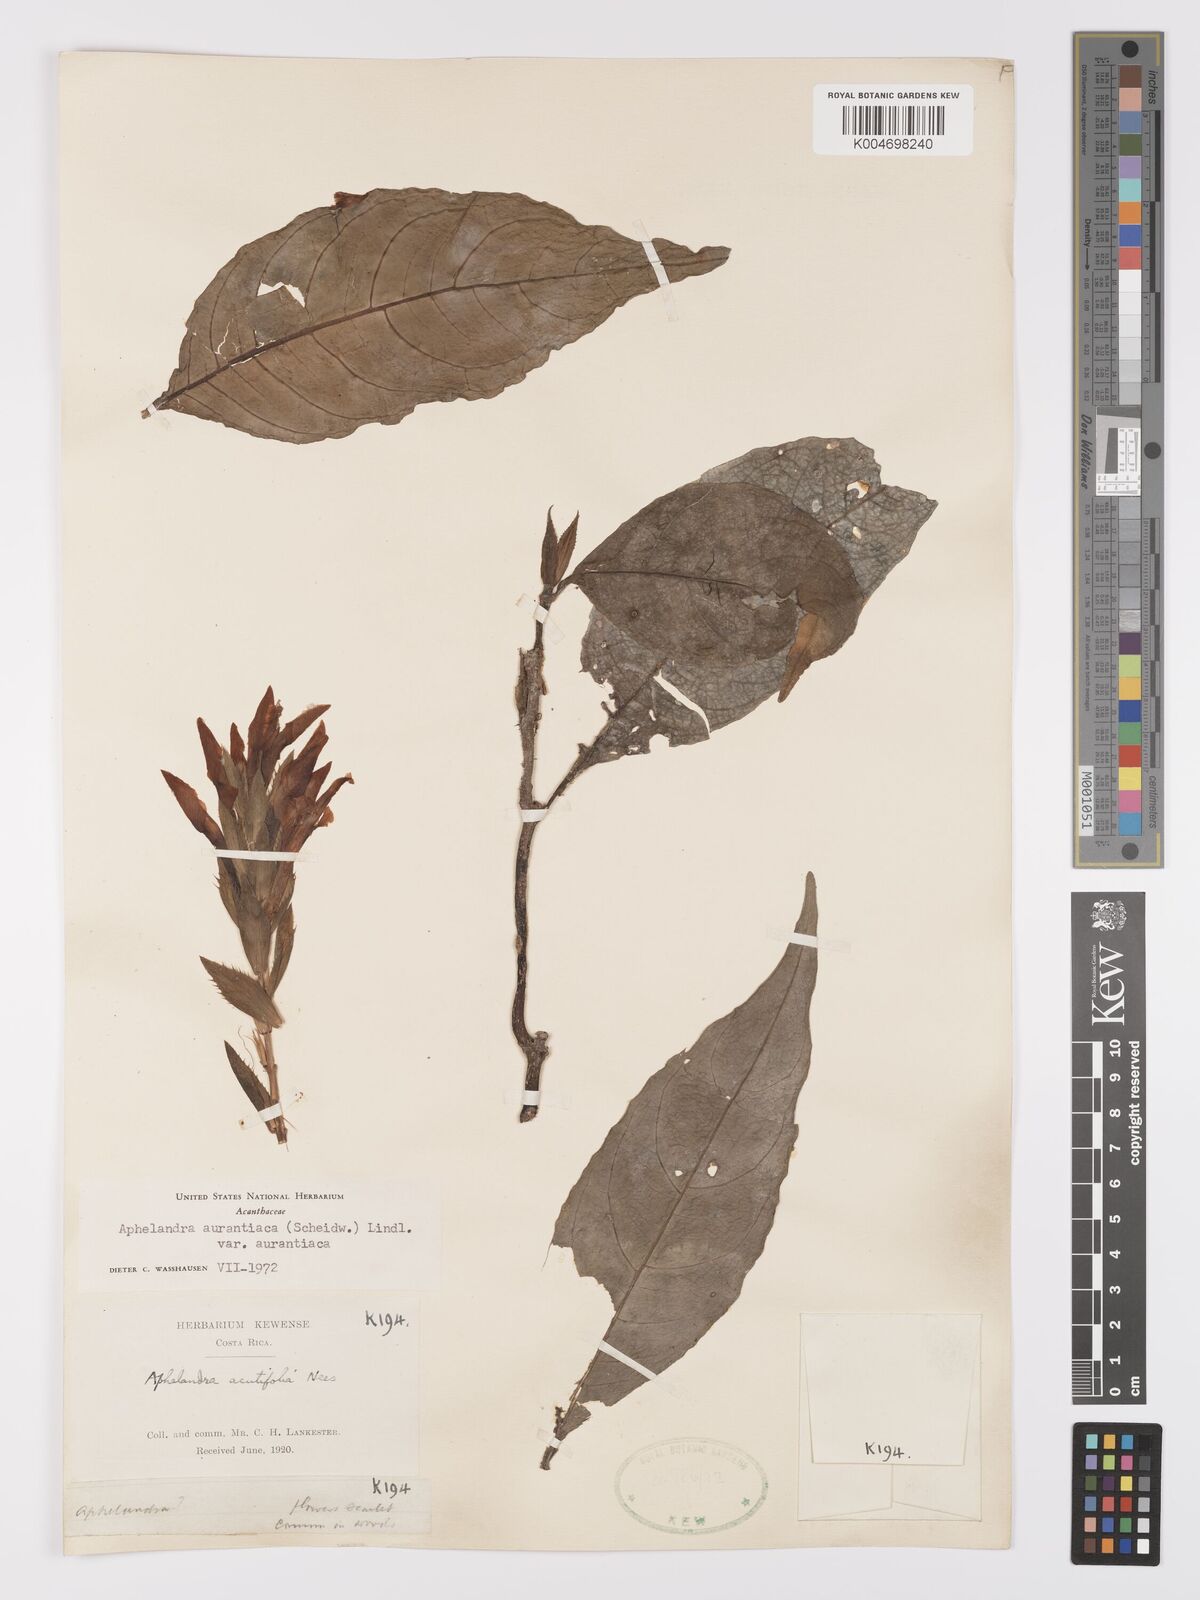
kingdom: Plantae
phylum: Tracheophyta
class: Magnoliopsida
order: Lamiales
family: Acanthaceae
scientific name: Acanthaceae
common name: Acanthaceae
